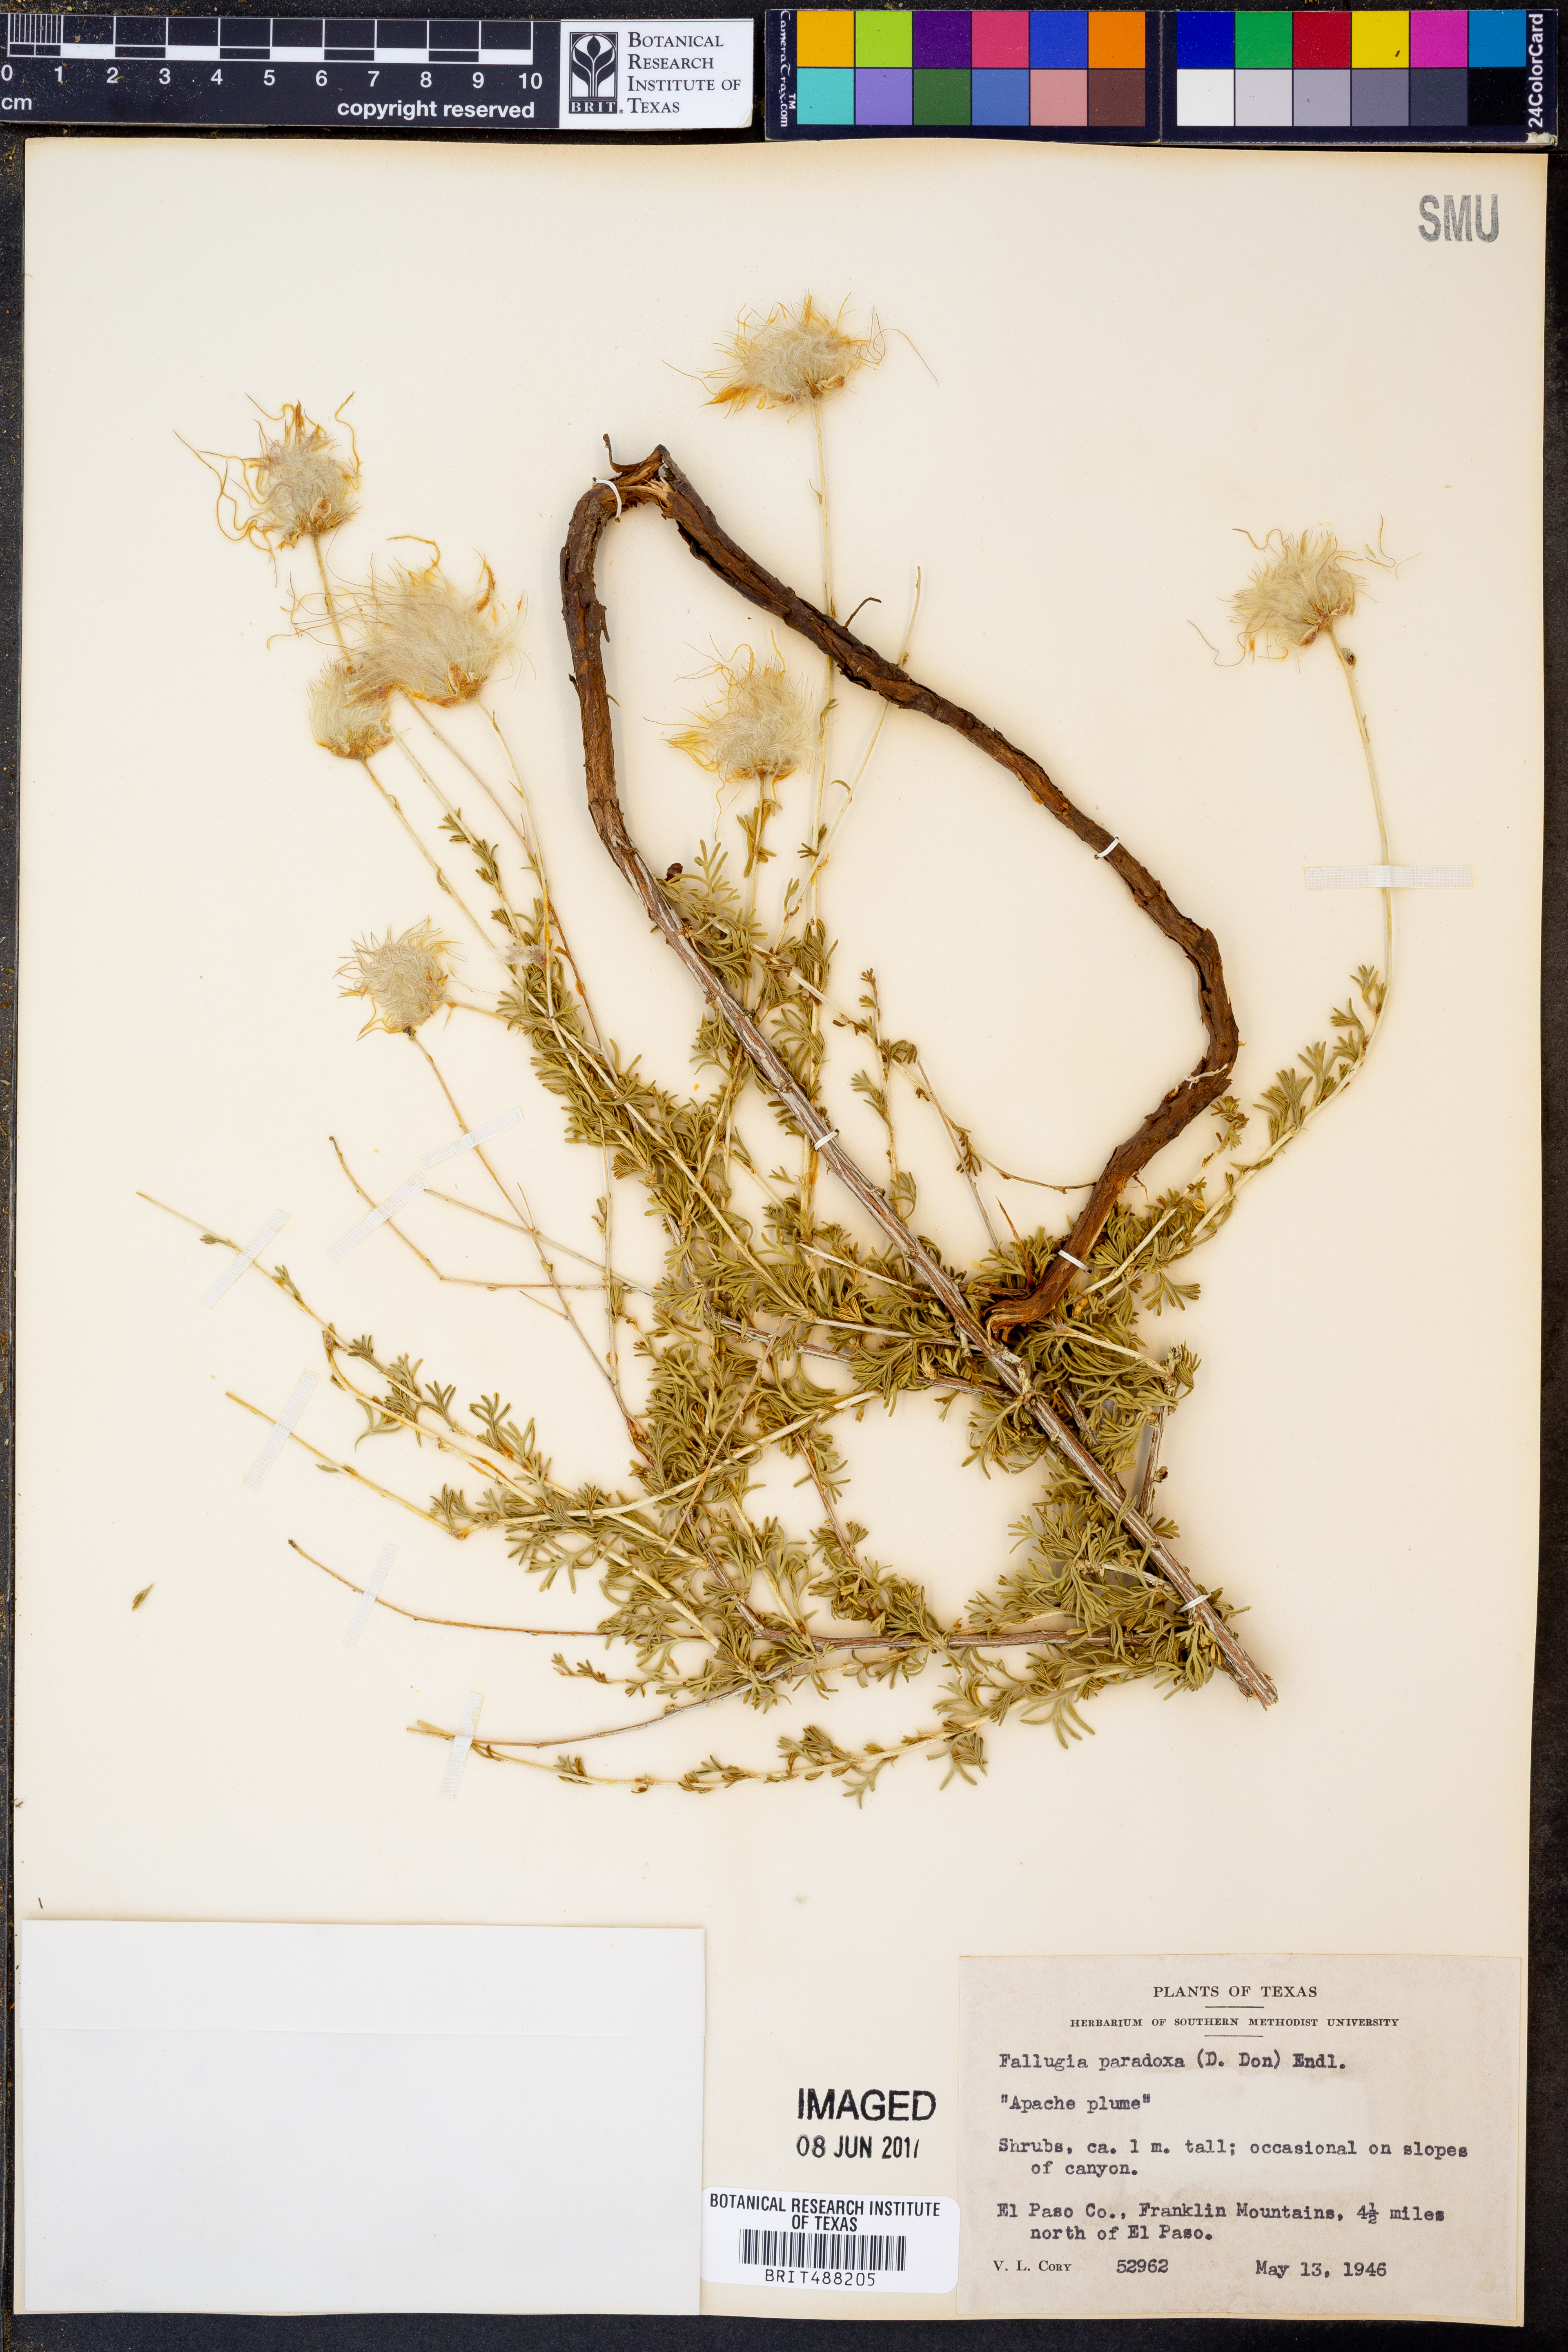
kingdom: Plantae
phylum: Tracheophyta
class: Magnoliopsida
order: Rosales
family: Rosaceae
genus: Fallugia
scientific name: Fallugia paradoxa
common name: Apache-plume
